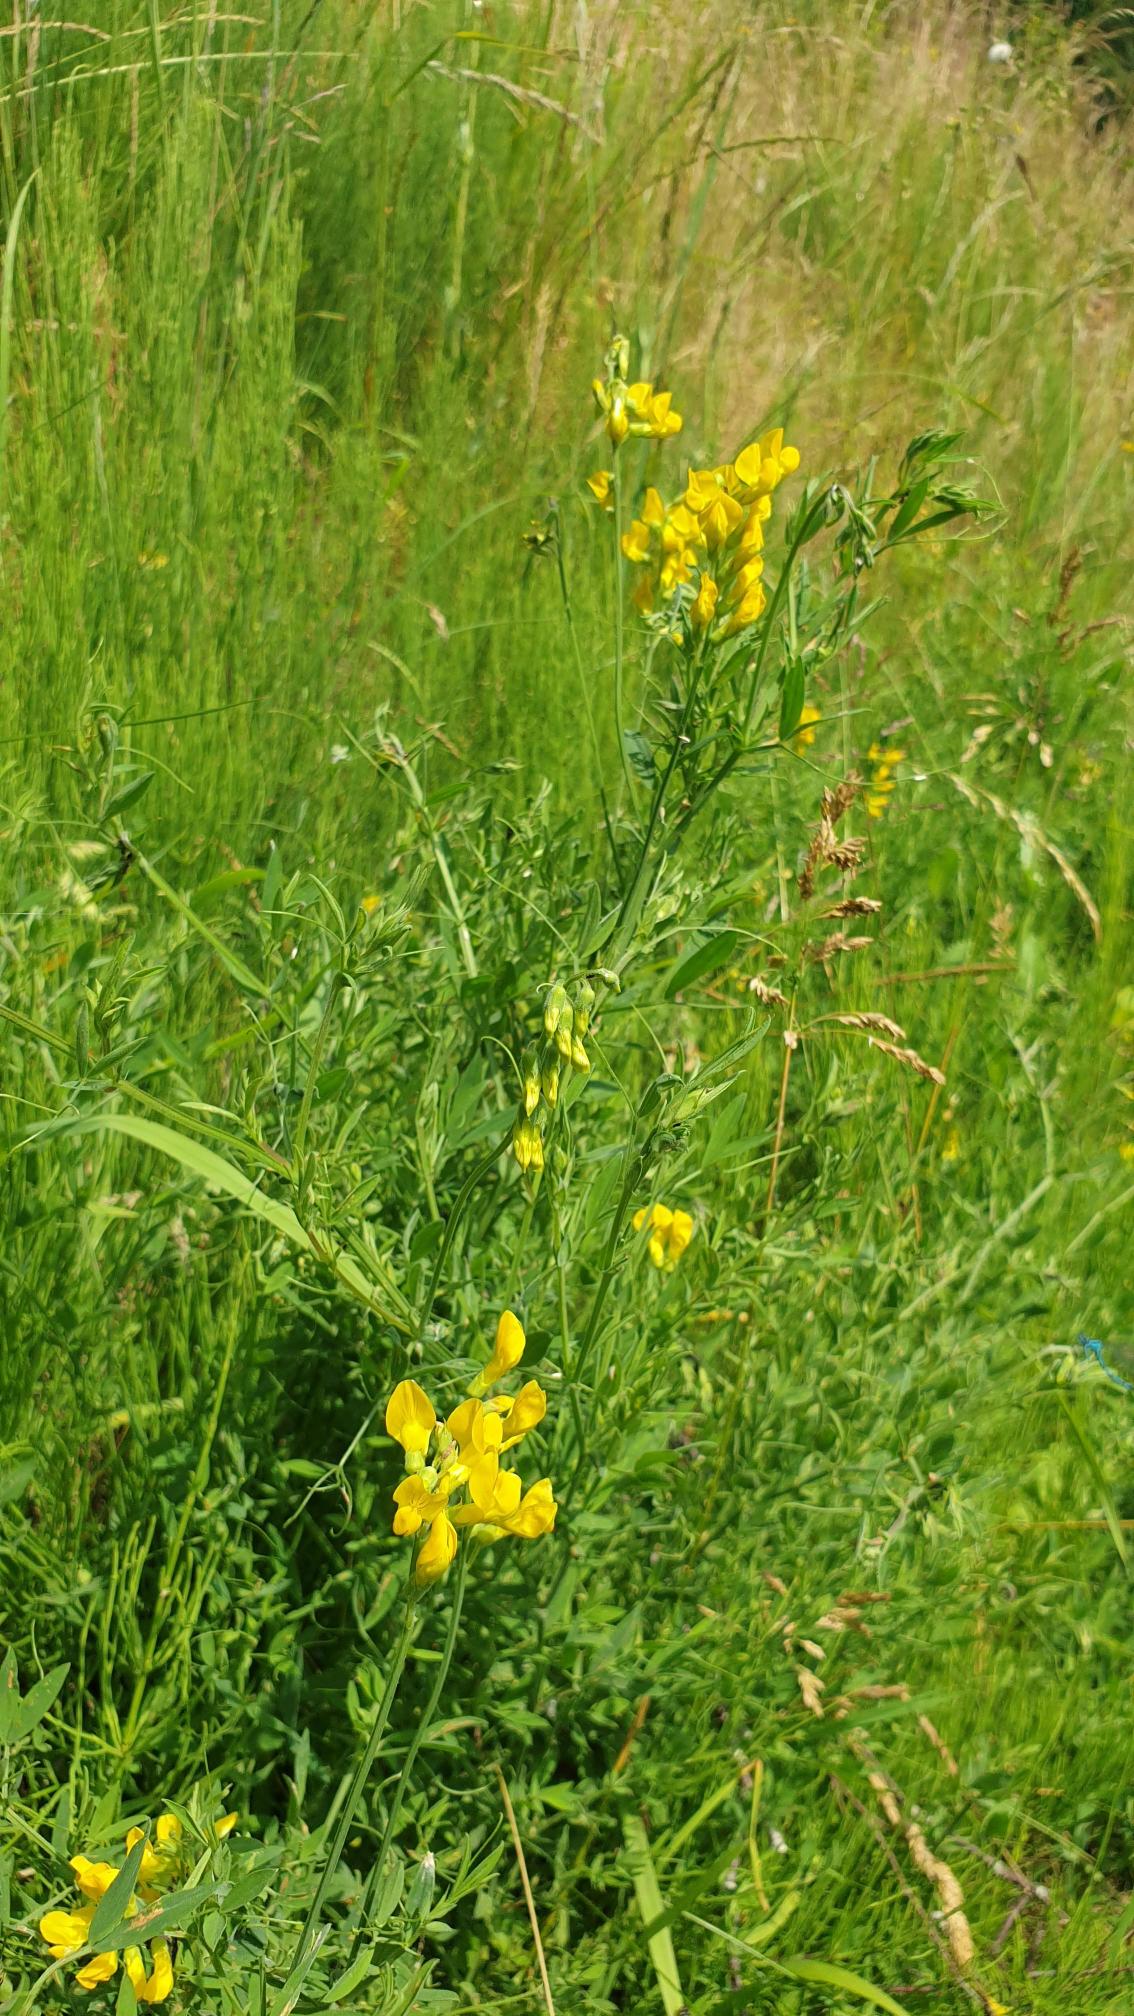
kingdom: Plantae
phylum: Tracheophyta
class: Magnoliopsida
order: Fabales
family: Fabaceae
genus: Lathyrus
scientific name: Lathyrus pratensis
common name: Gul fladbælg
